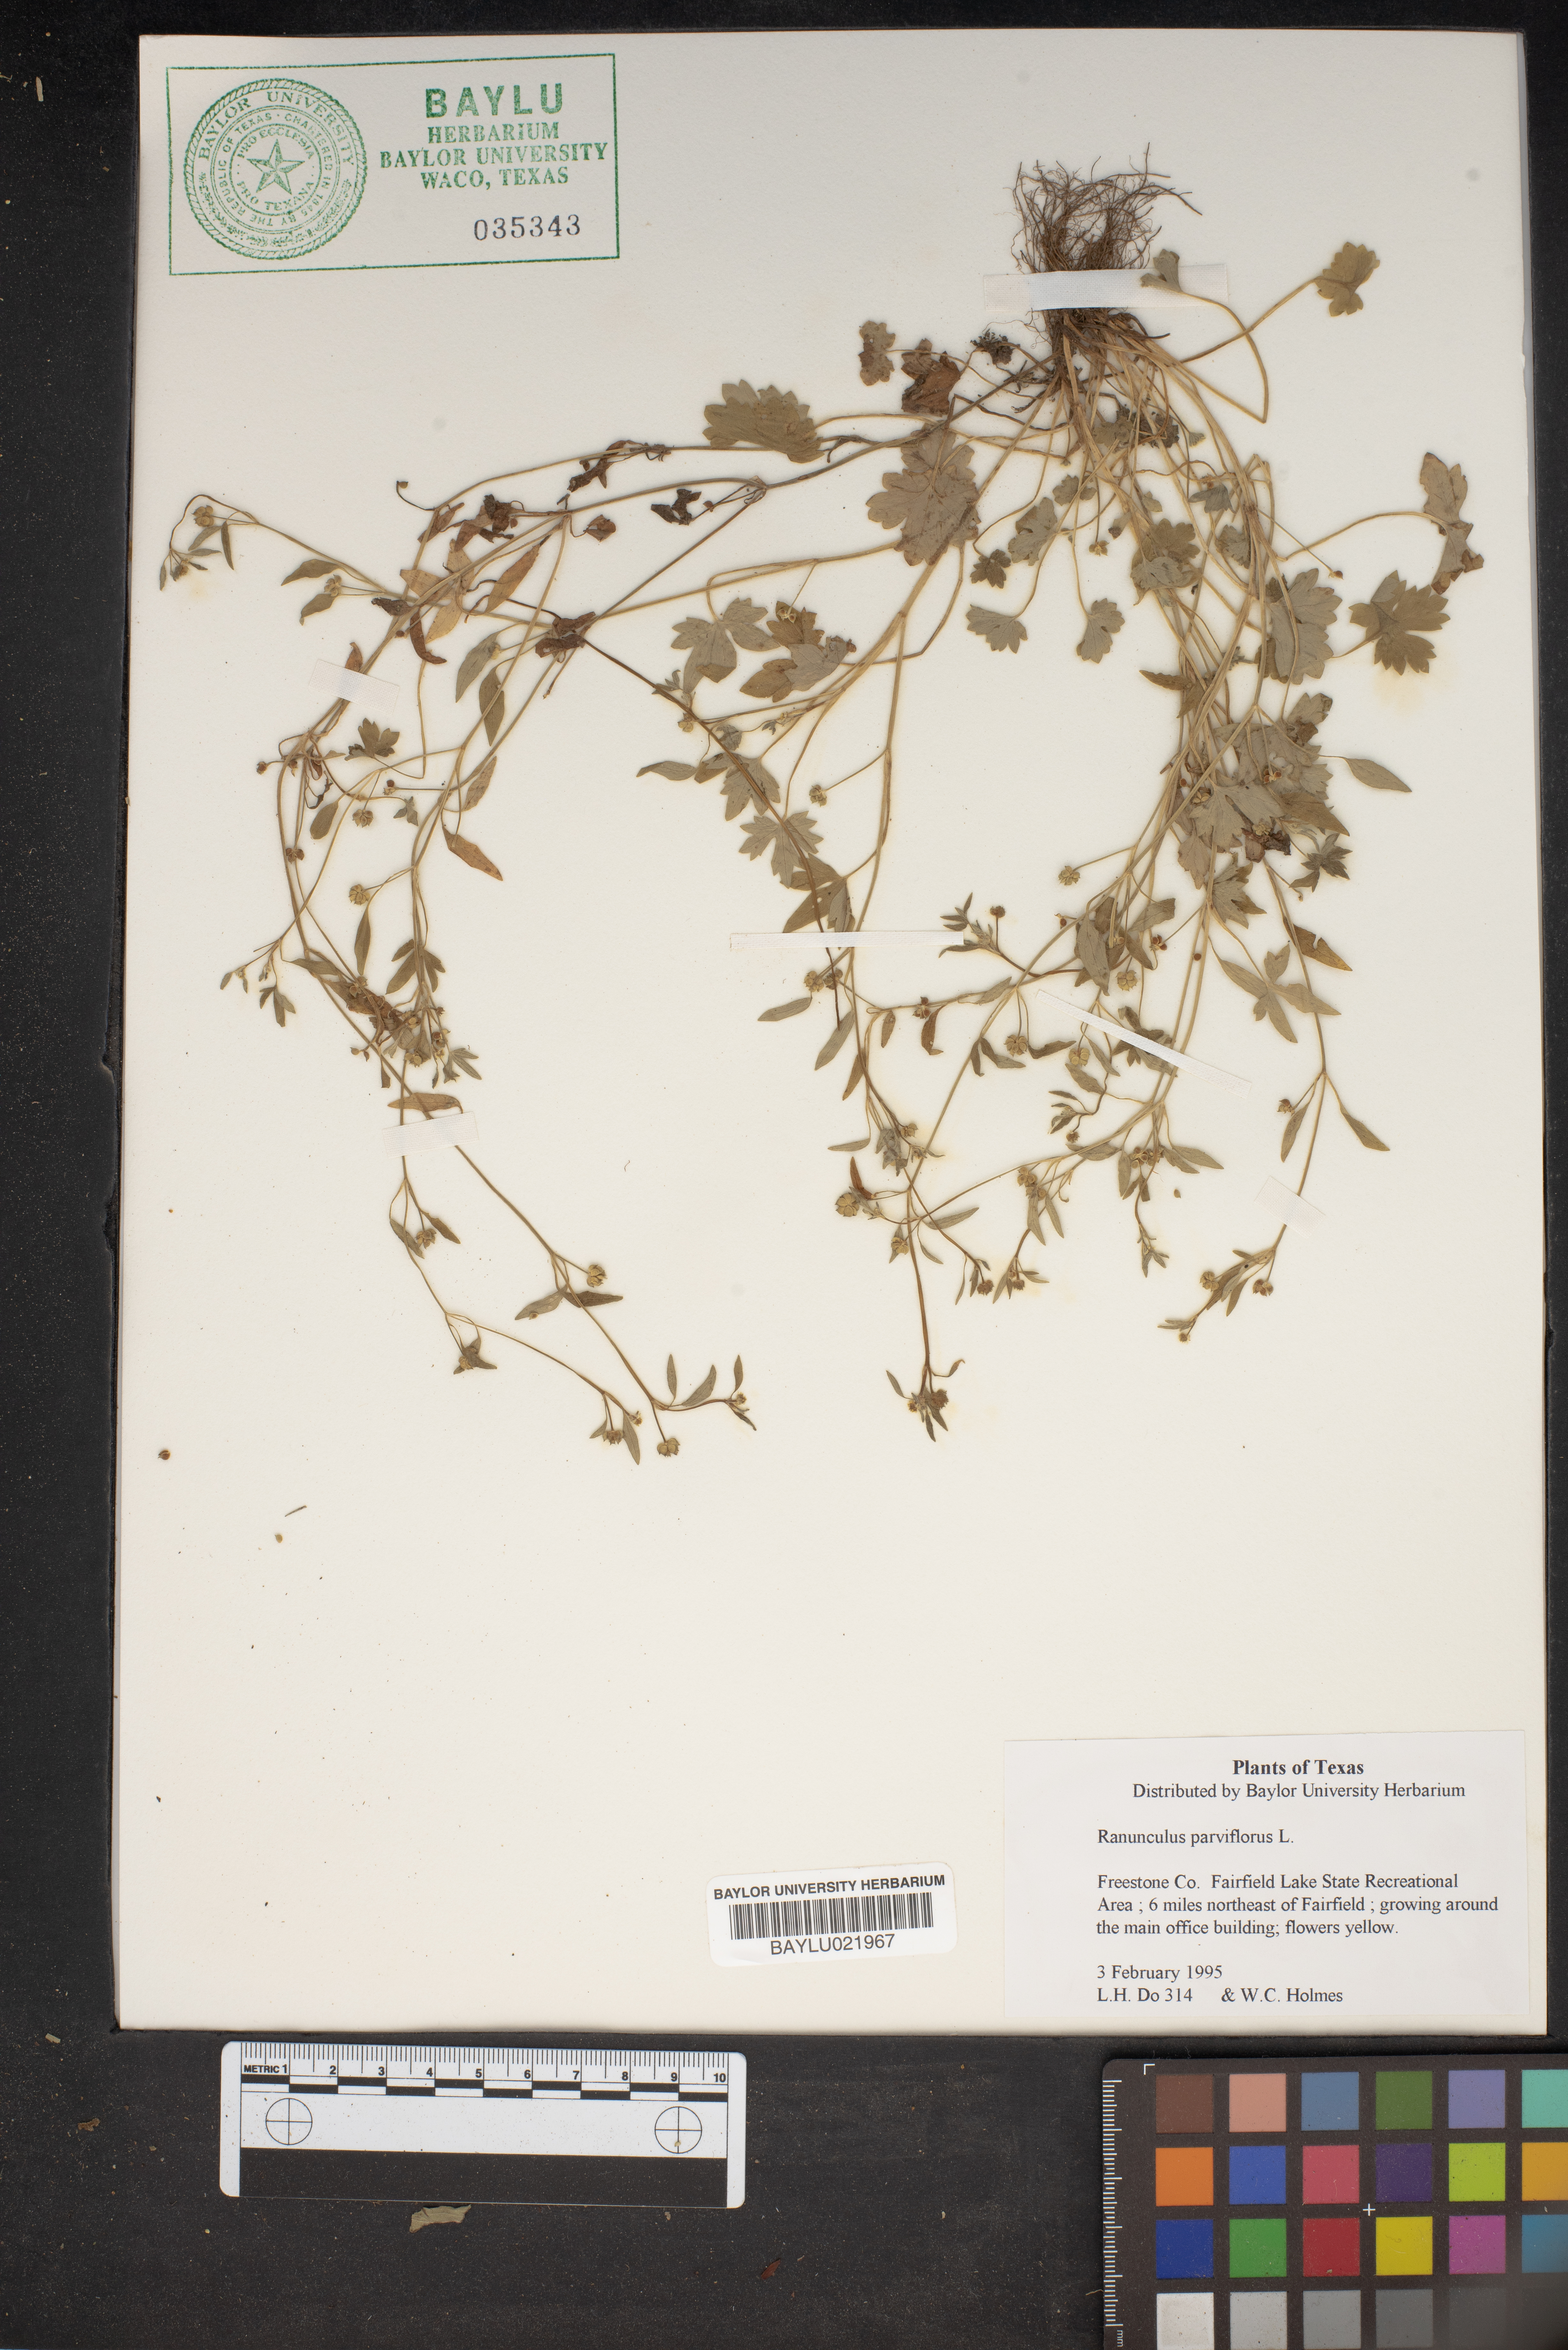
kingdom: Plantae
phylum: Tracheophyta
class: Magnoliopsida
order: Ranunculales
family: Ranunculaceae
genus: Ranunculus
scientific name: Ranunculus parviflorus
